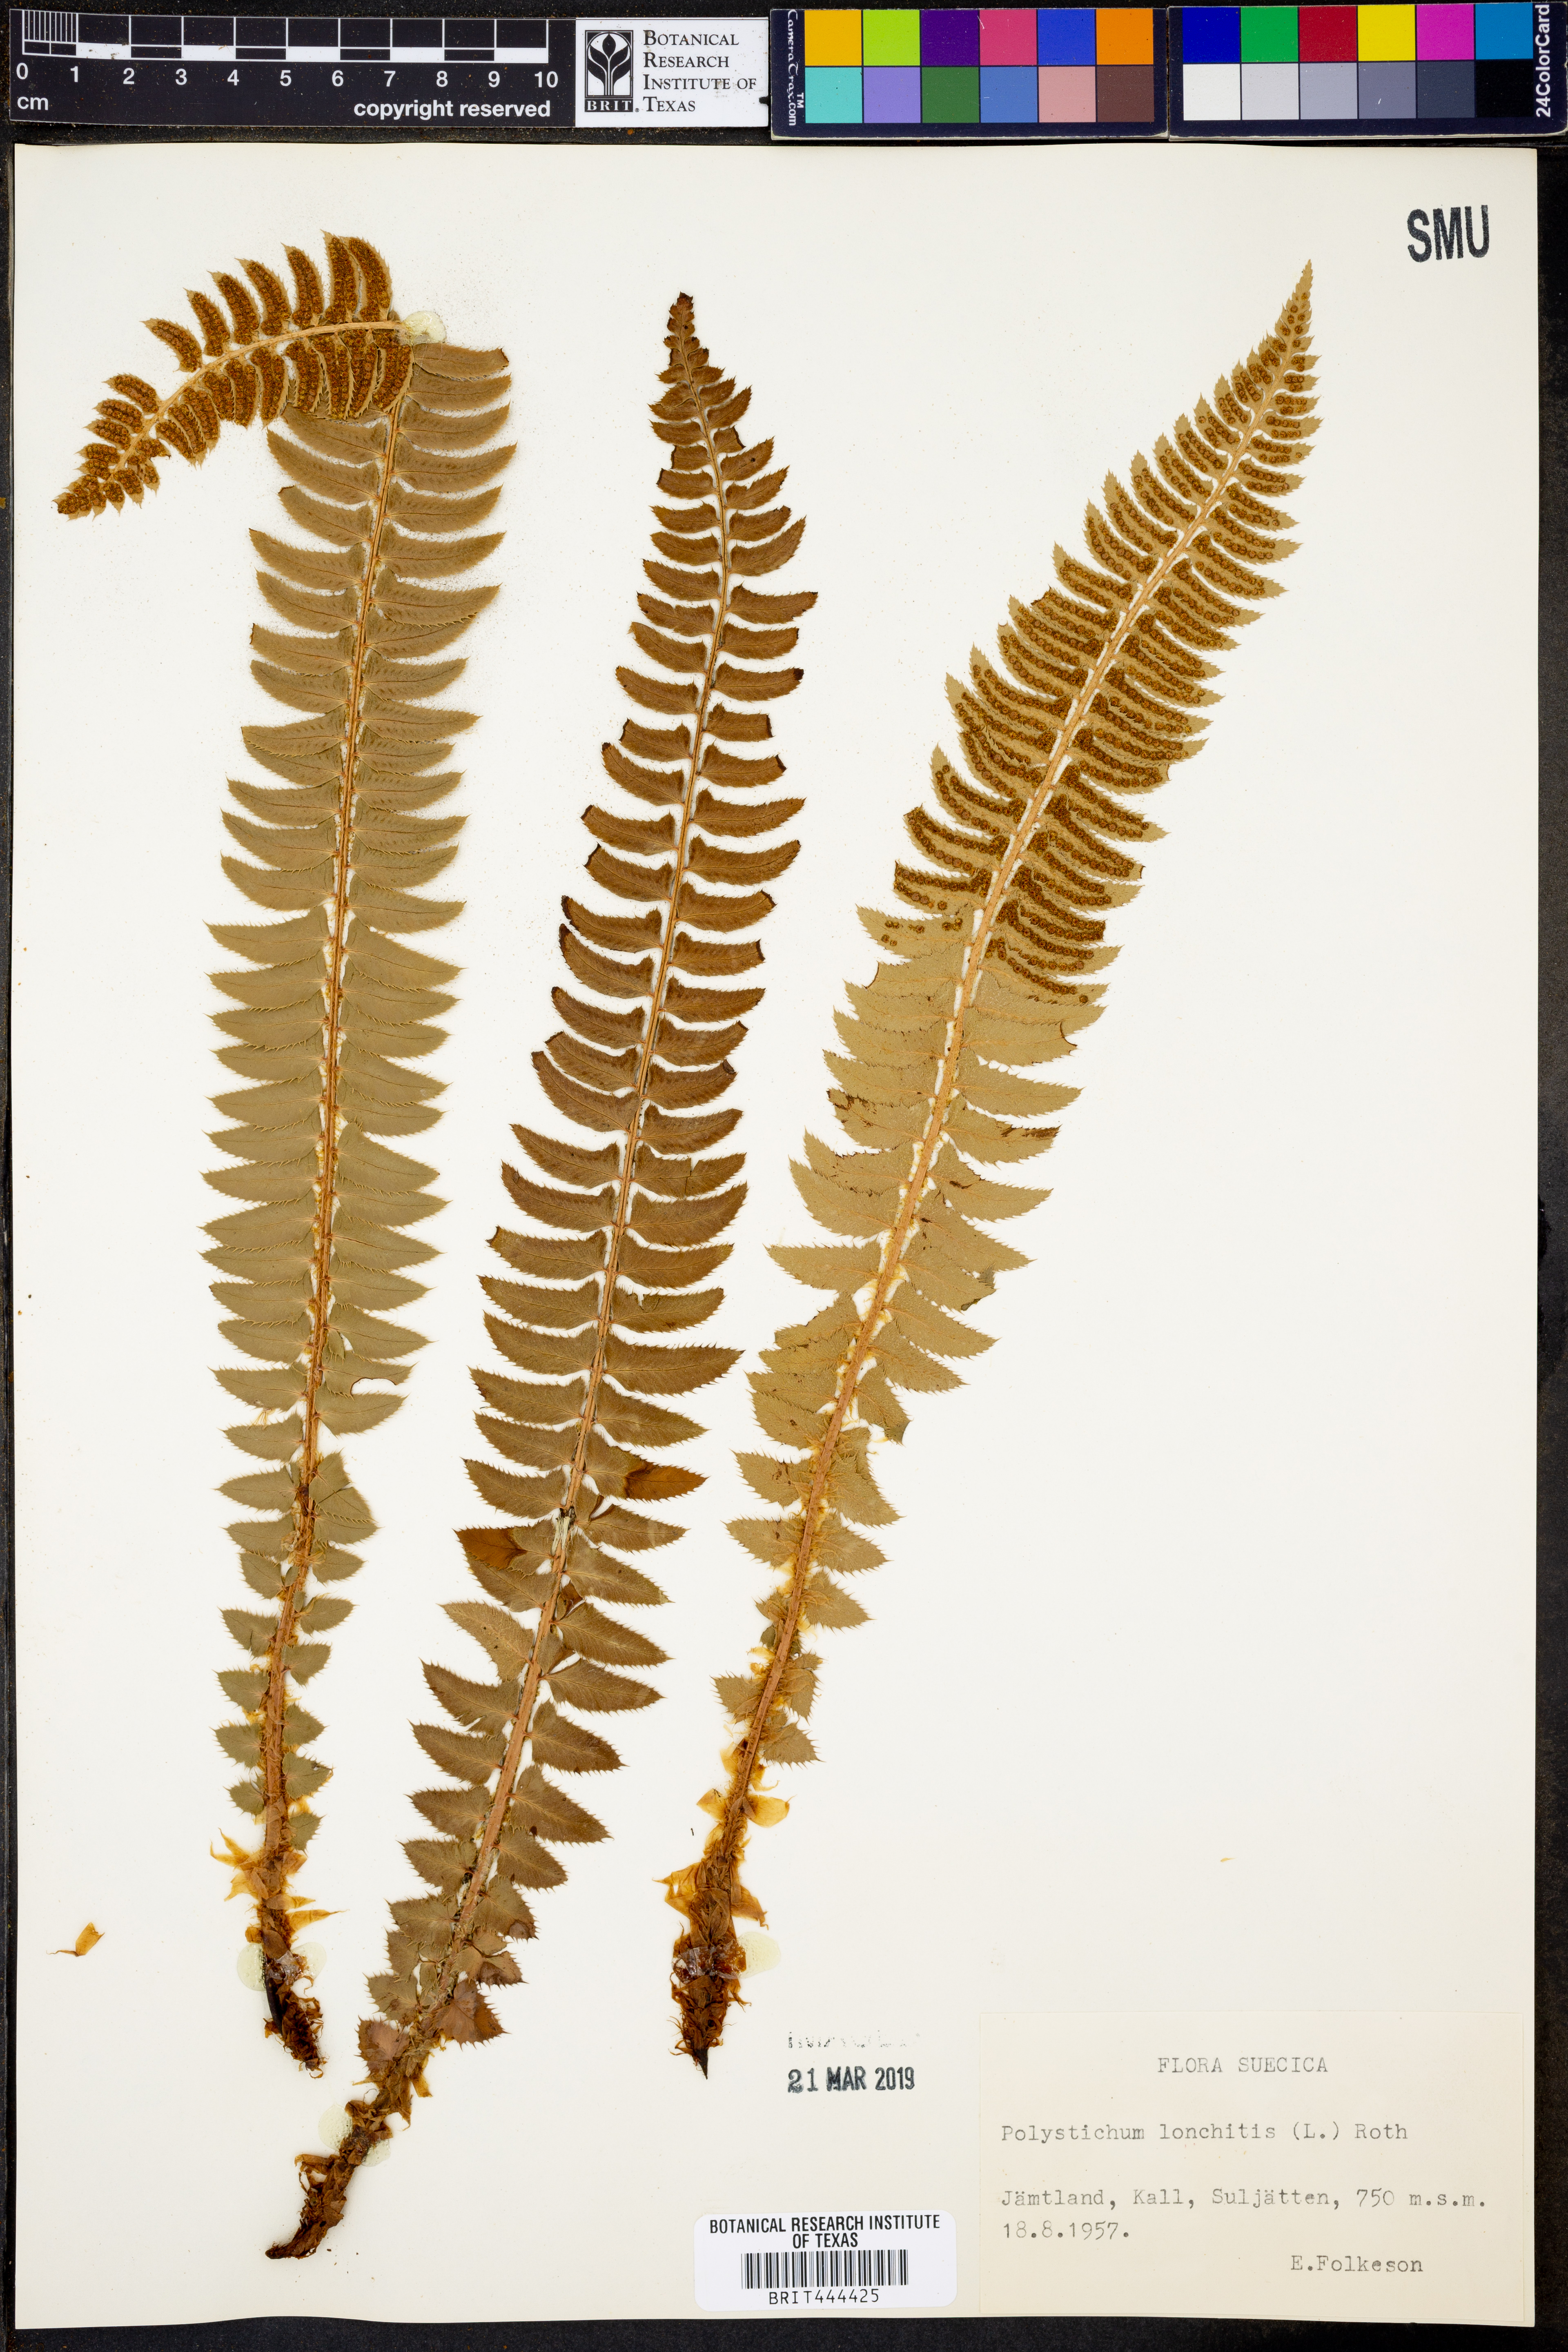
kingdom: Plantae
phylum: Tracheophyta
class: Polypodiopsida
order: Polypodiales
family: Dryopteridaceae
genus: Polystichum
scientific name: Polystichum lonchitis
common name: Holly fern
